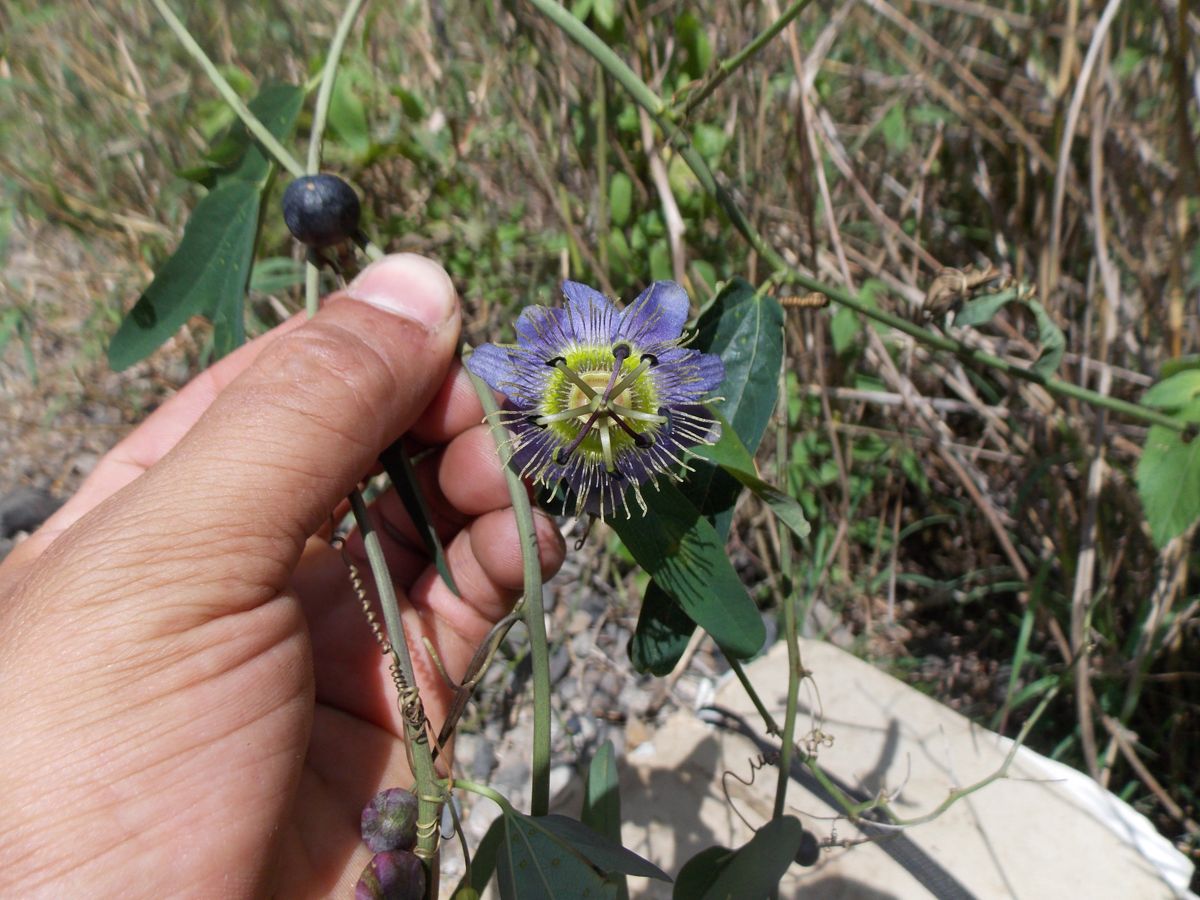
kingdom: Plantae
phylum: Tracheophyta
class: Magnoliopsida
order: Malpighiales
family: Passifloraceae
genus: Passiflora
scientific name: Passiflora standleyi
